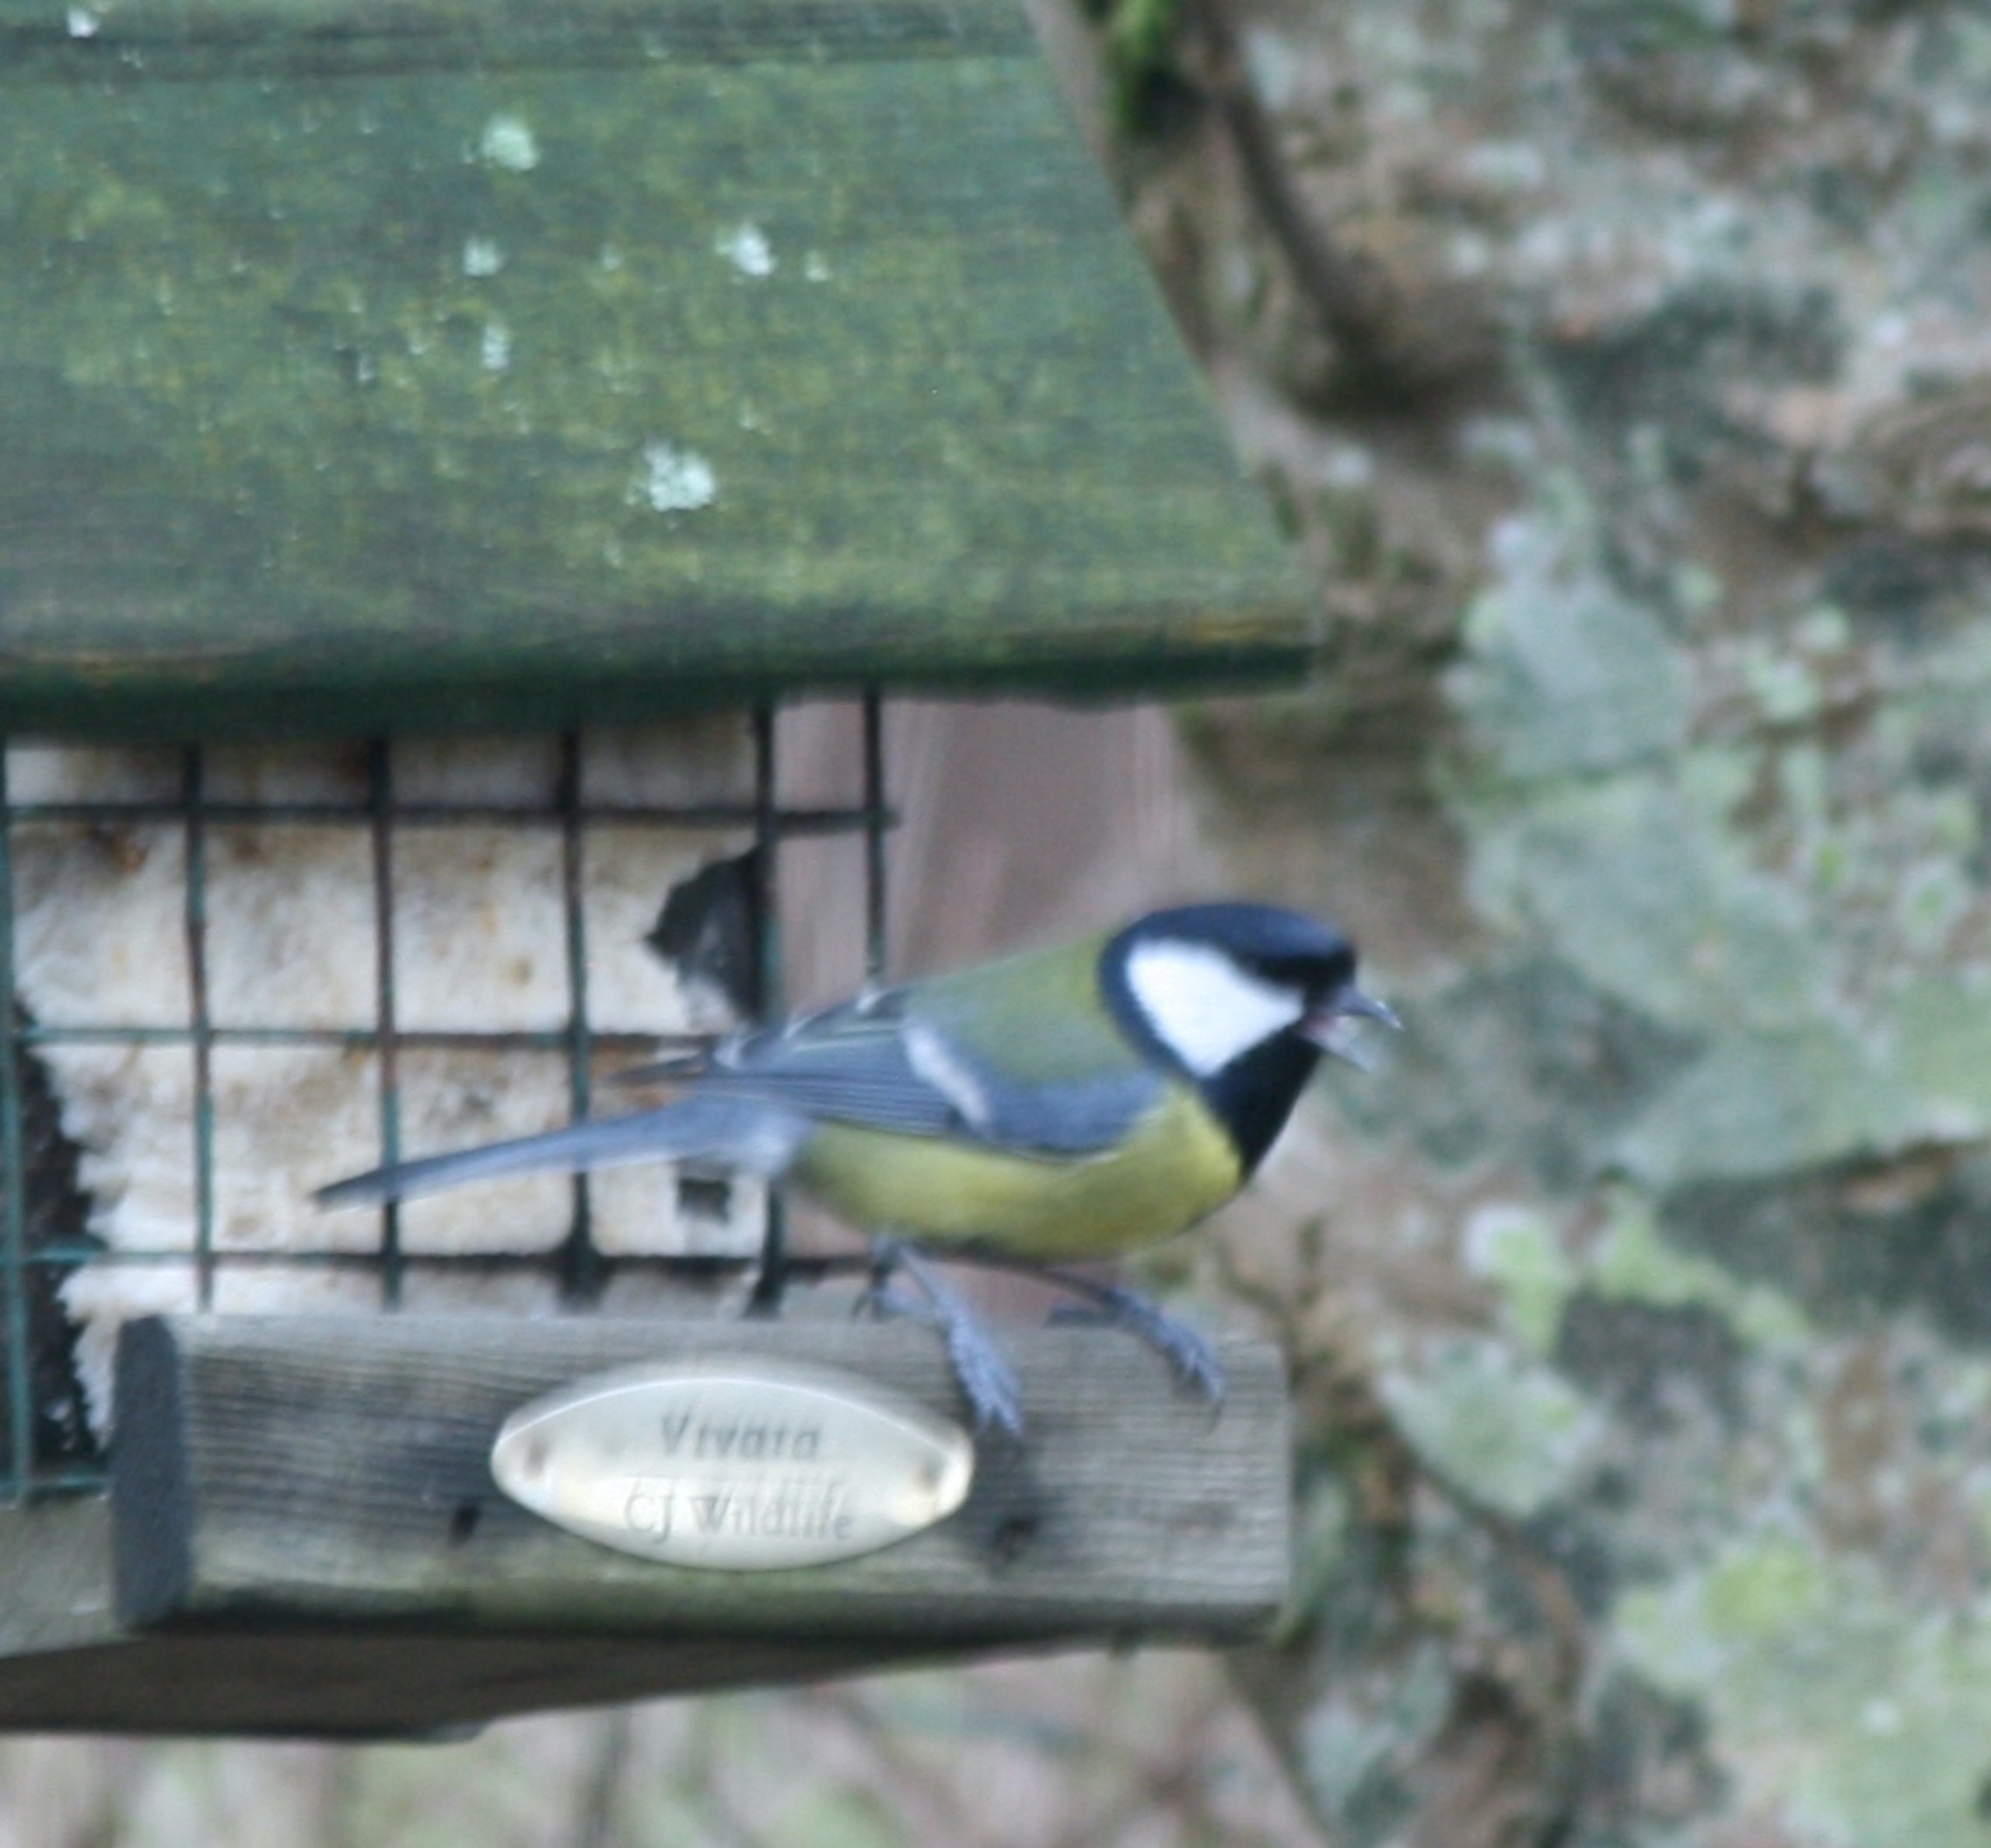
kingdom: Animalia
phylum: Chordata
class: Aves
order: Passeriformes
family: Paridae
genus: Parus
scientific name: Parus major
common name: Musvit
